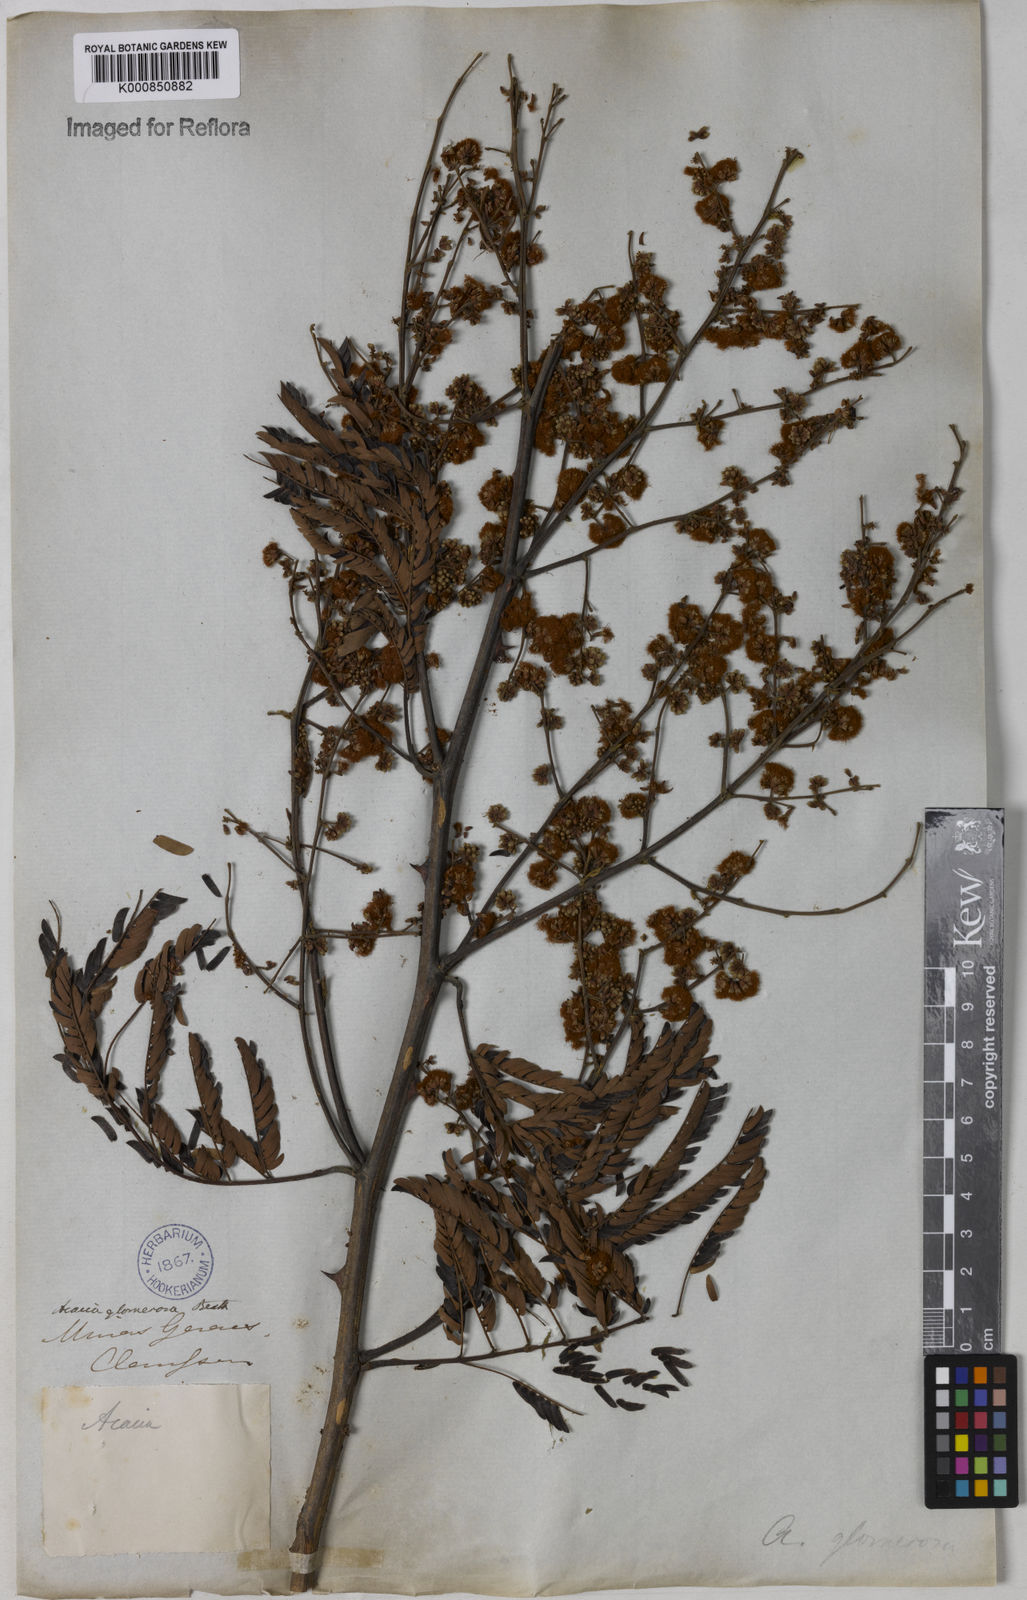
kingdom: Plantae
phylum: Tracheophyta
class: Magnoliopsida
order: Fabales
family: Fabaceae
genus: Senegalia
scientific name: Senegalia polyphylla
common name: White-tamarind
